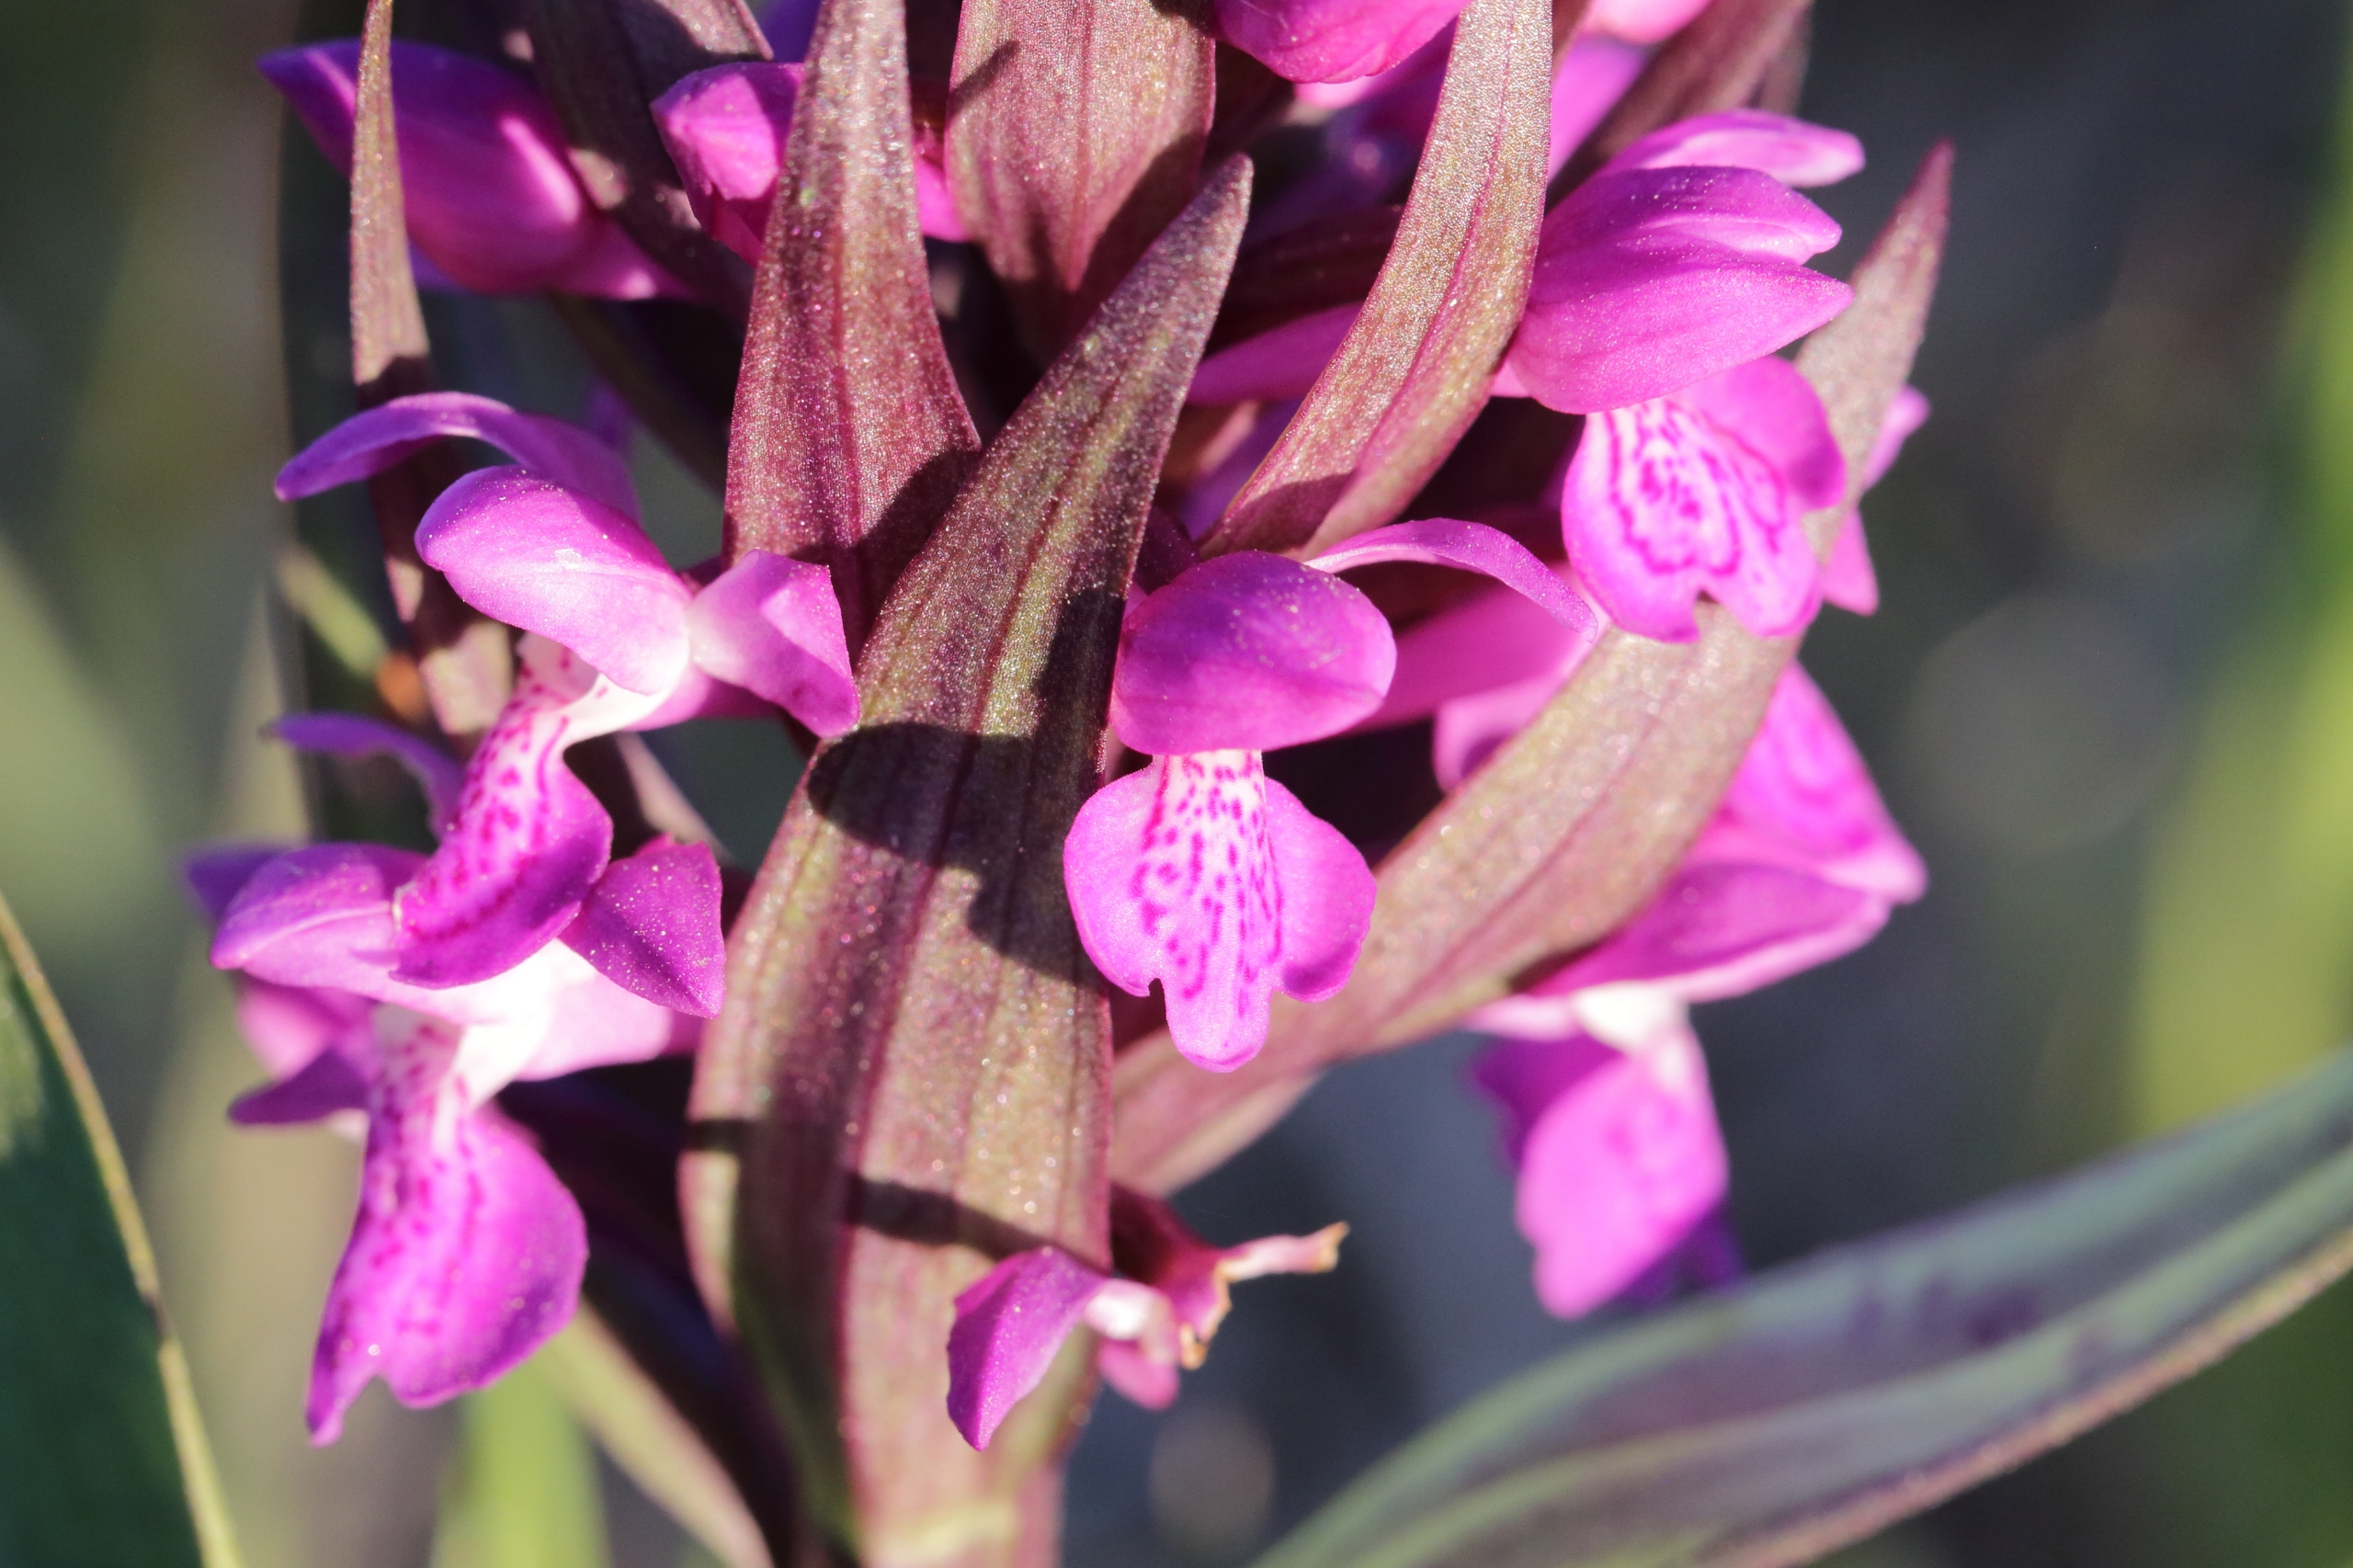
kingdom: Plantae
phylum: Tracheophyta
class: Liliopsida
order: Asparagales
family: Orchidaceae
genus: Dactylorhiza
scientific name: Dactylorhiza majalis
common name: Maj-gøgeurt
